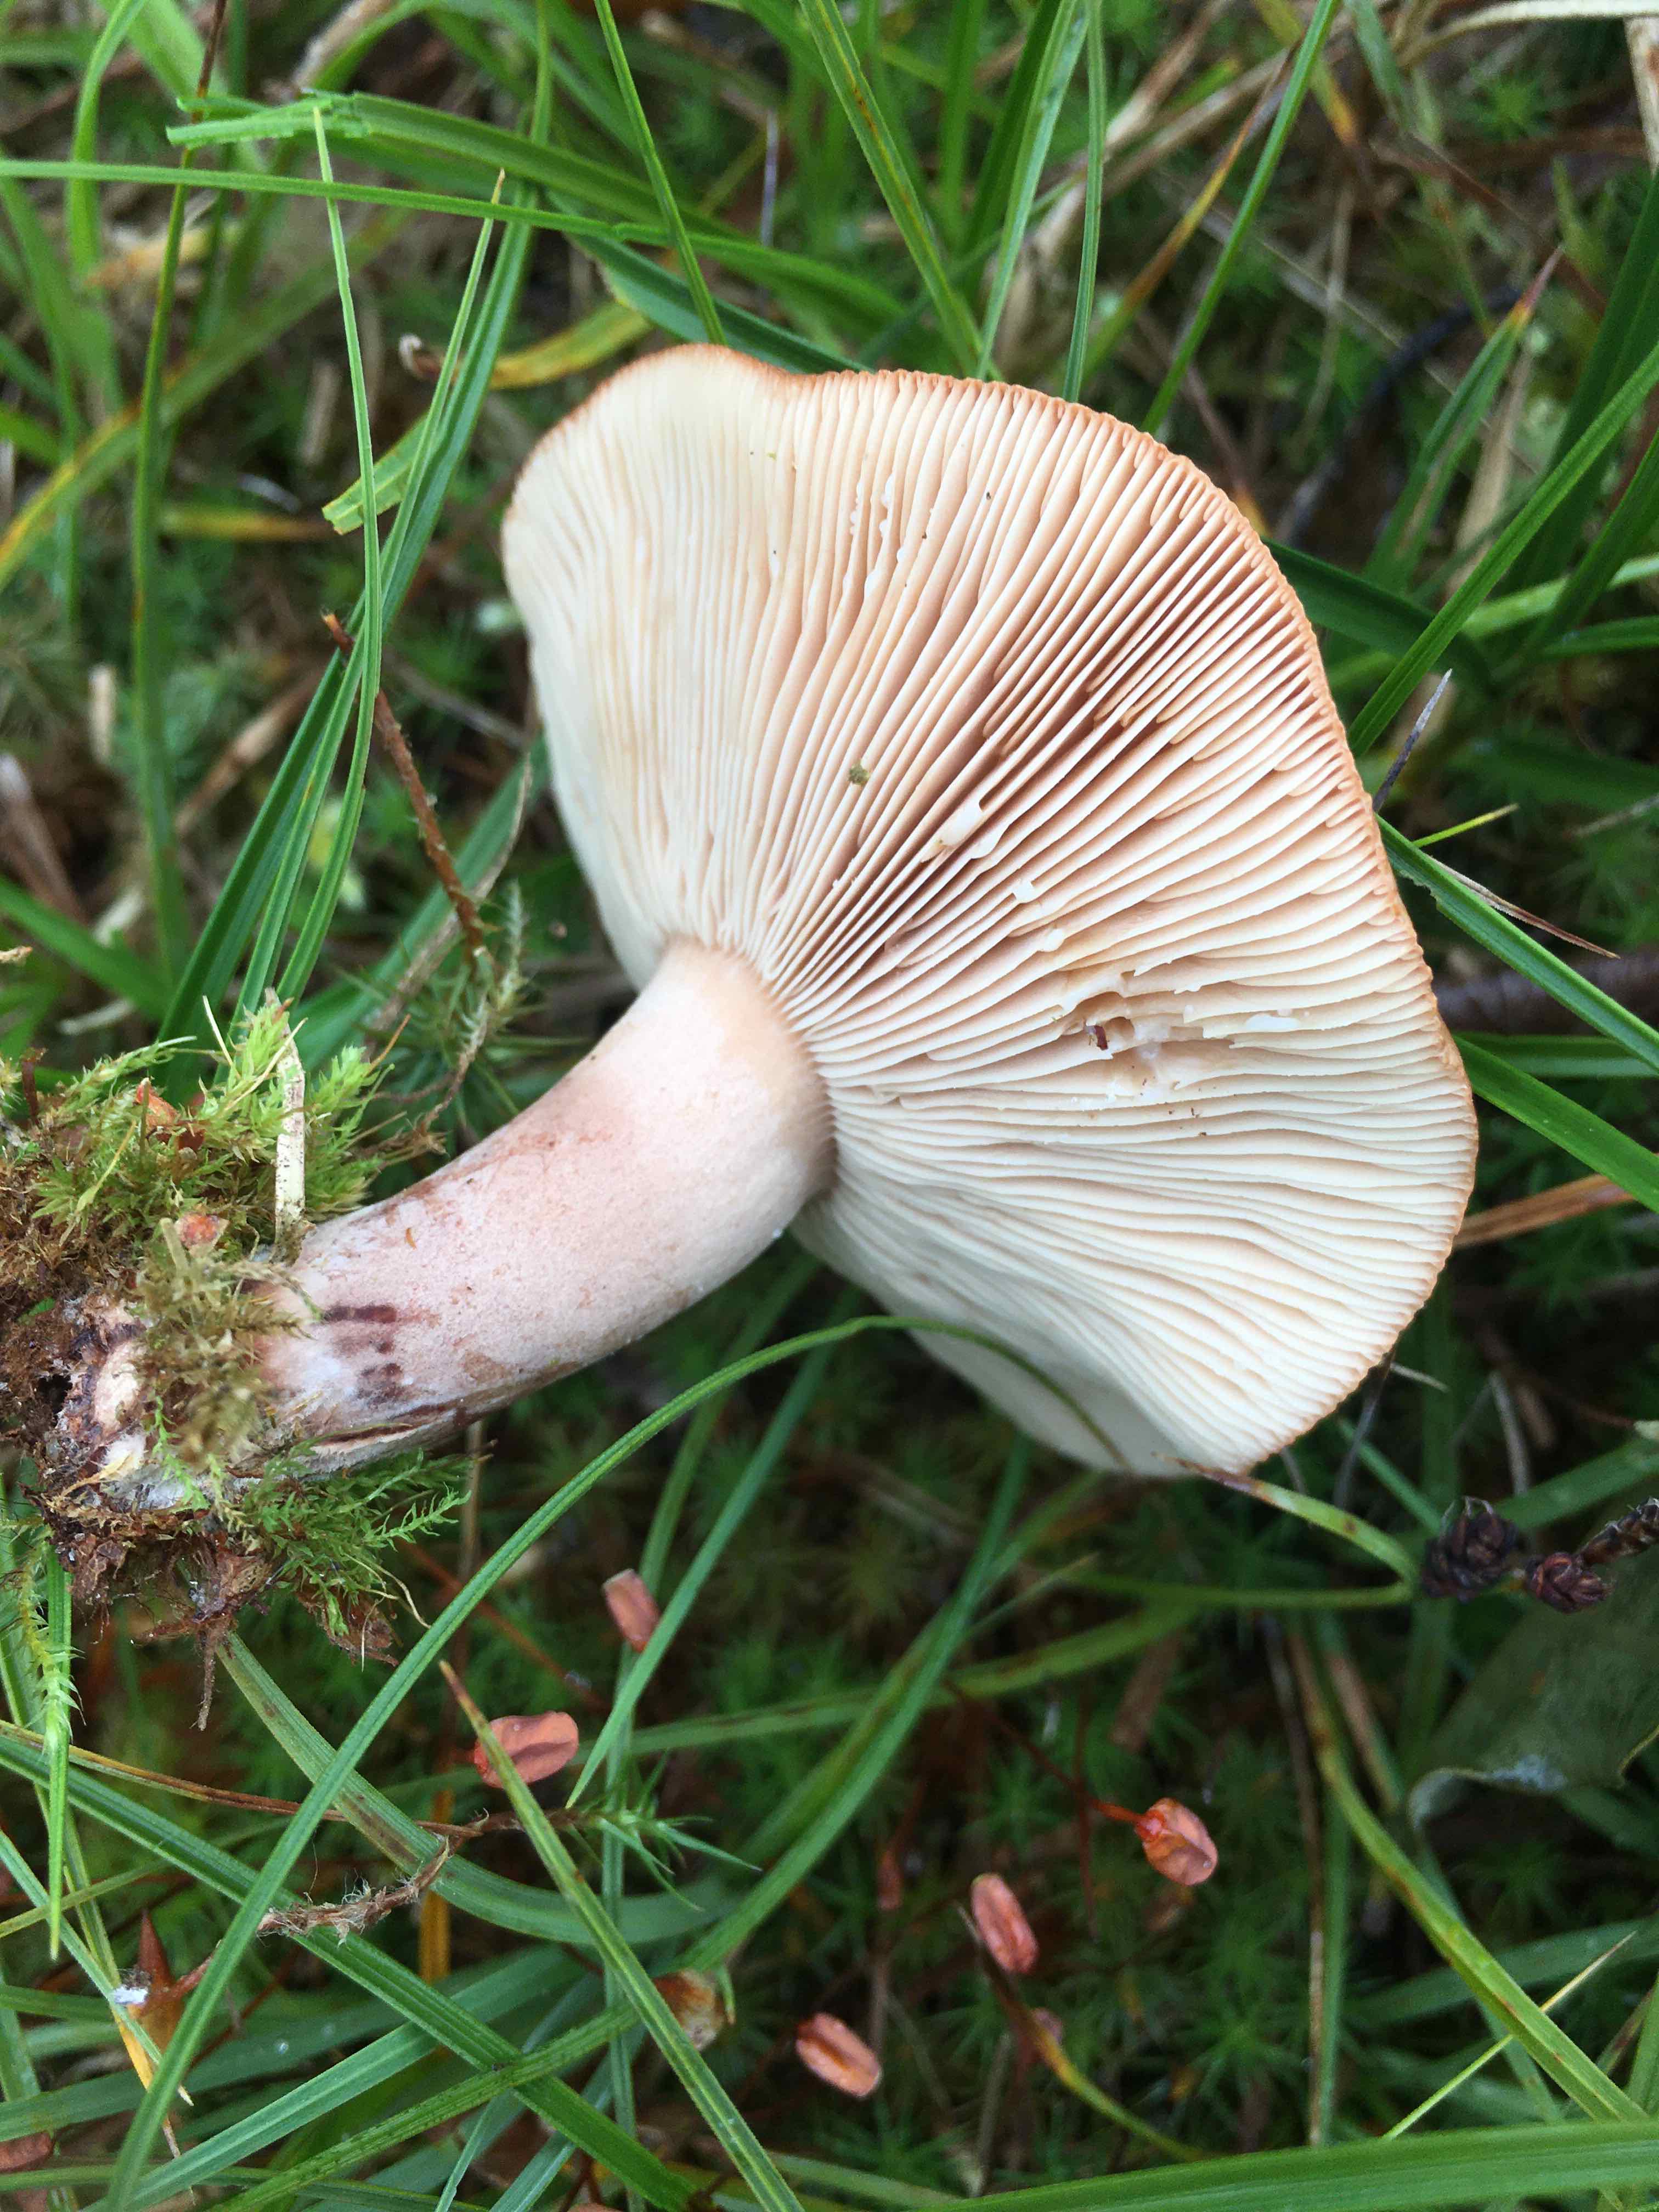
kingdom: Fungi
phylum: Basidiomycota
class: Agaricomycetes
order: Russulales
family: Russulaceae
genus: Lactarius
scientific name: Lactarius quietus
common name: ege-mælkehat
